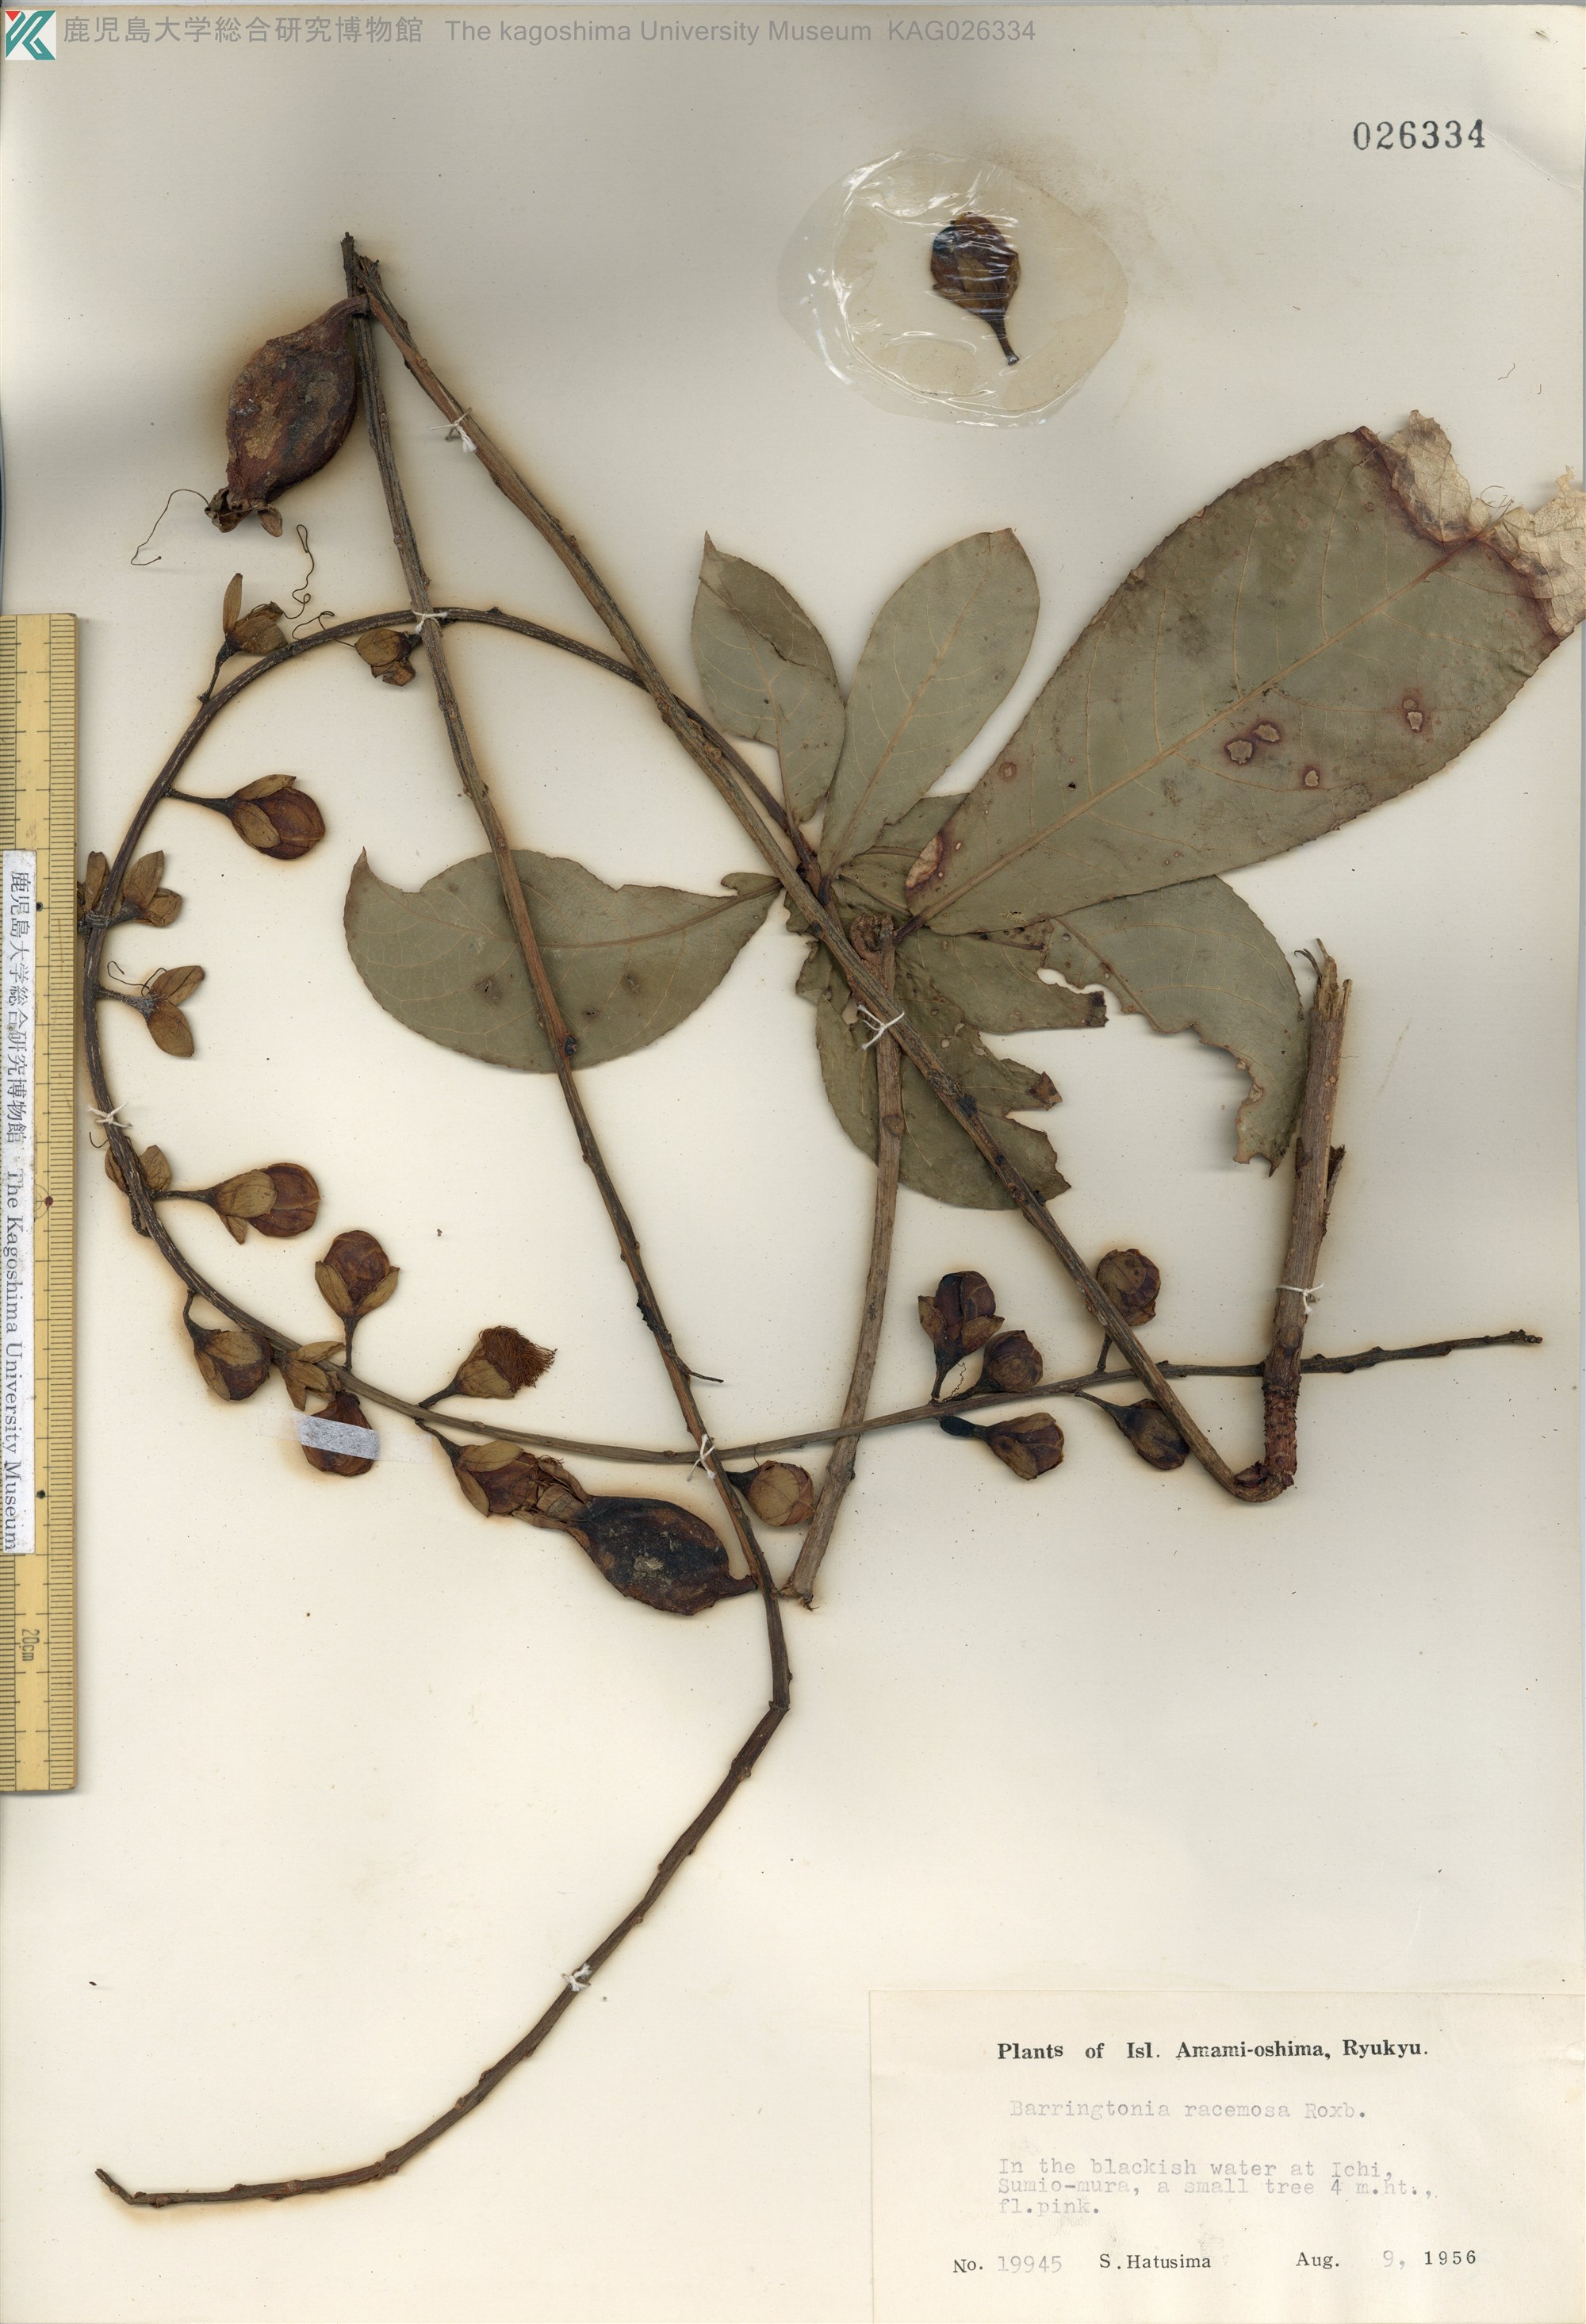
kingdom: Plantae
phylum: Tracheophyta
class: Magnoliopsida
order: Ericales
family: Lecythidaceae
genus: Barringtonia
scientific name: Barringtonia racemosa
